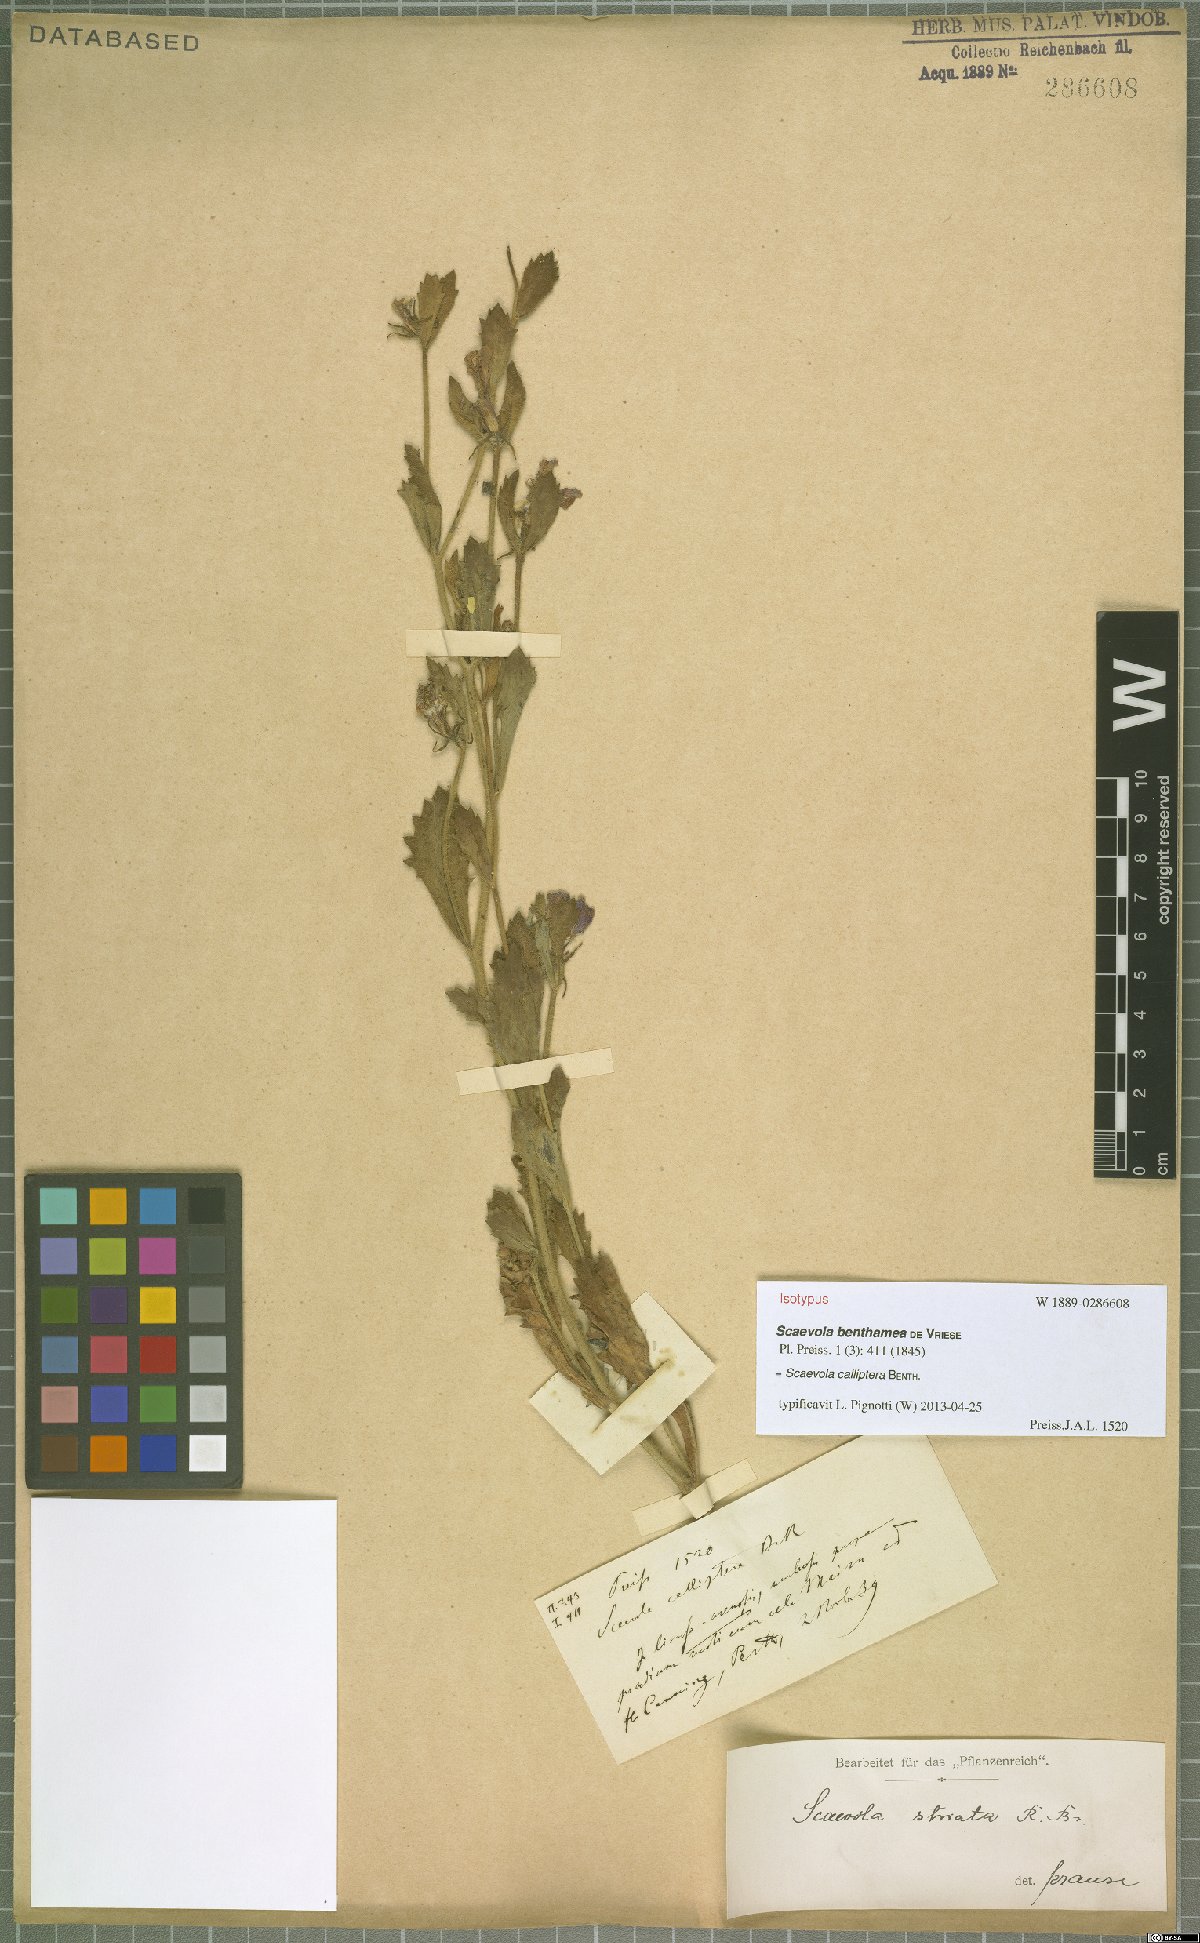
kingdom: Plantae
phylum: Tracheophyta
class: Magnoliopsida
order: Asterales
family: Goodeniaceae
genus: Scaevola
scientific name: Scaevola calliptera
